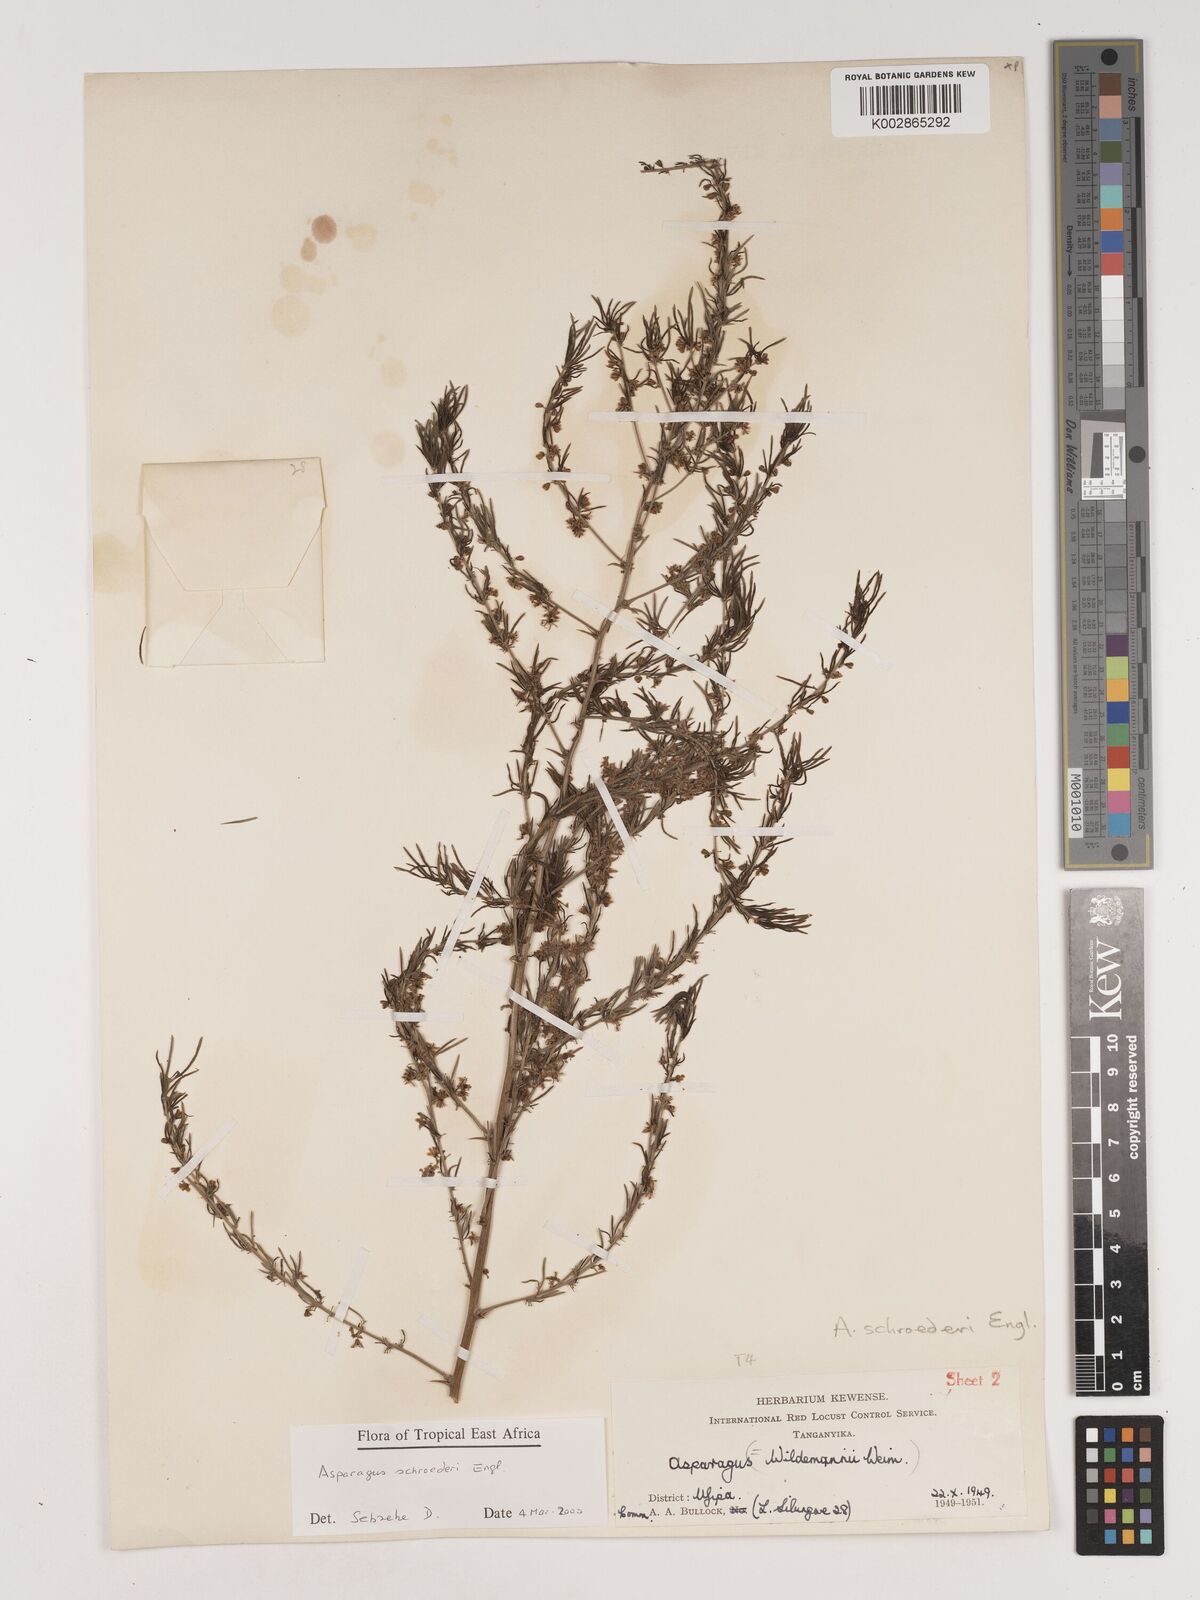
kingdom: Plantae
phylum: Tracheophyta
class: Liliopsida
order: Asparagales
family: Asparagaceae
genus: Asparagus
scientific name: Asparagus schroederi
